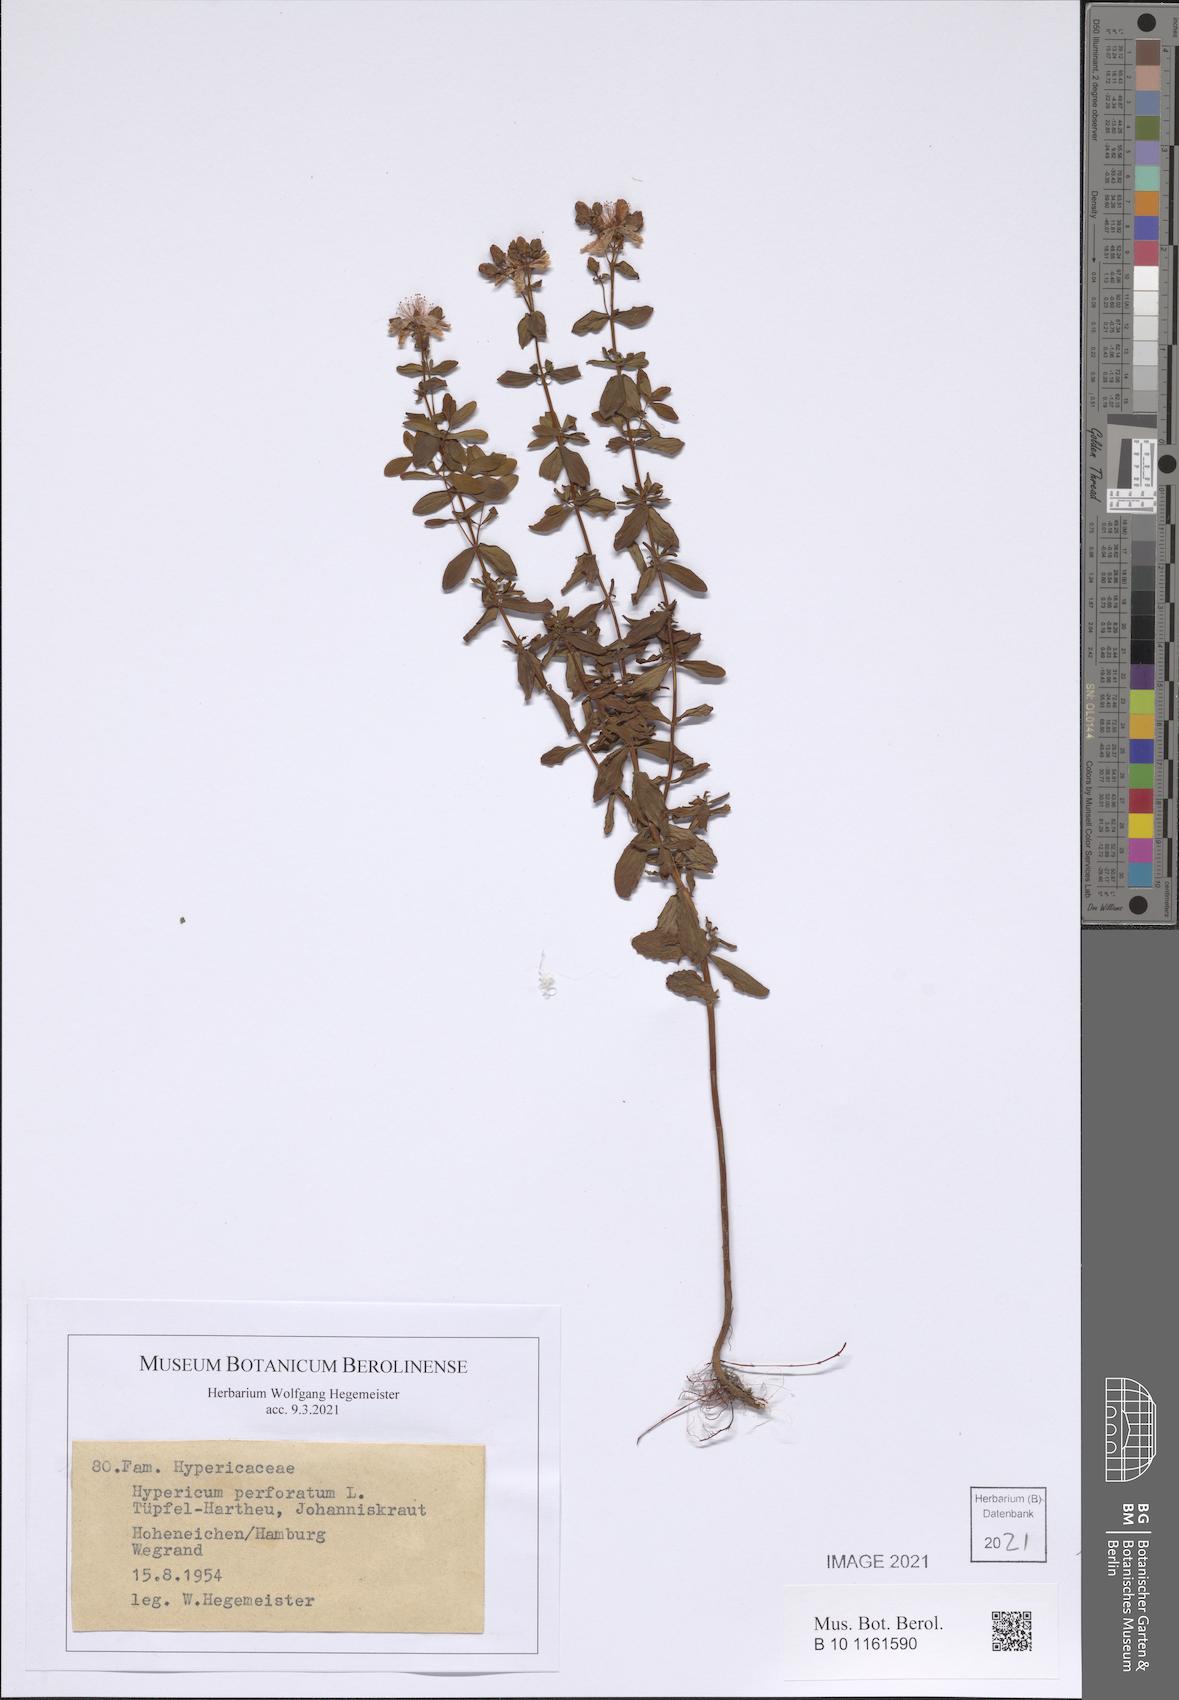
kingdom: Plantae
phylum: Tracheophyta
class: Magnoliopsida
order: Malpighiales
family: Hypericaceae
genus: Hypericum
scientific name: Hypericum perforatum
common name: Common st. johnswort
